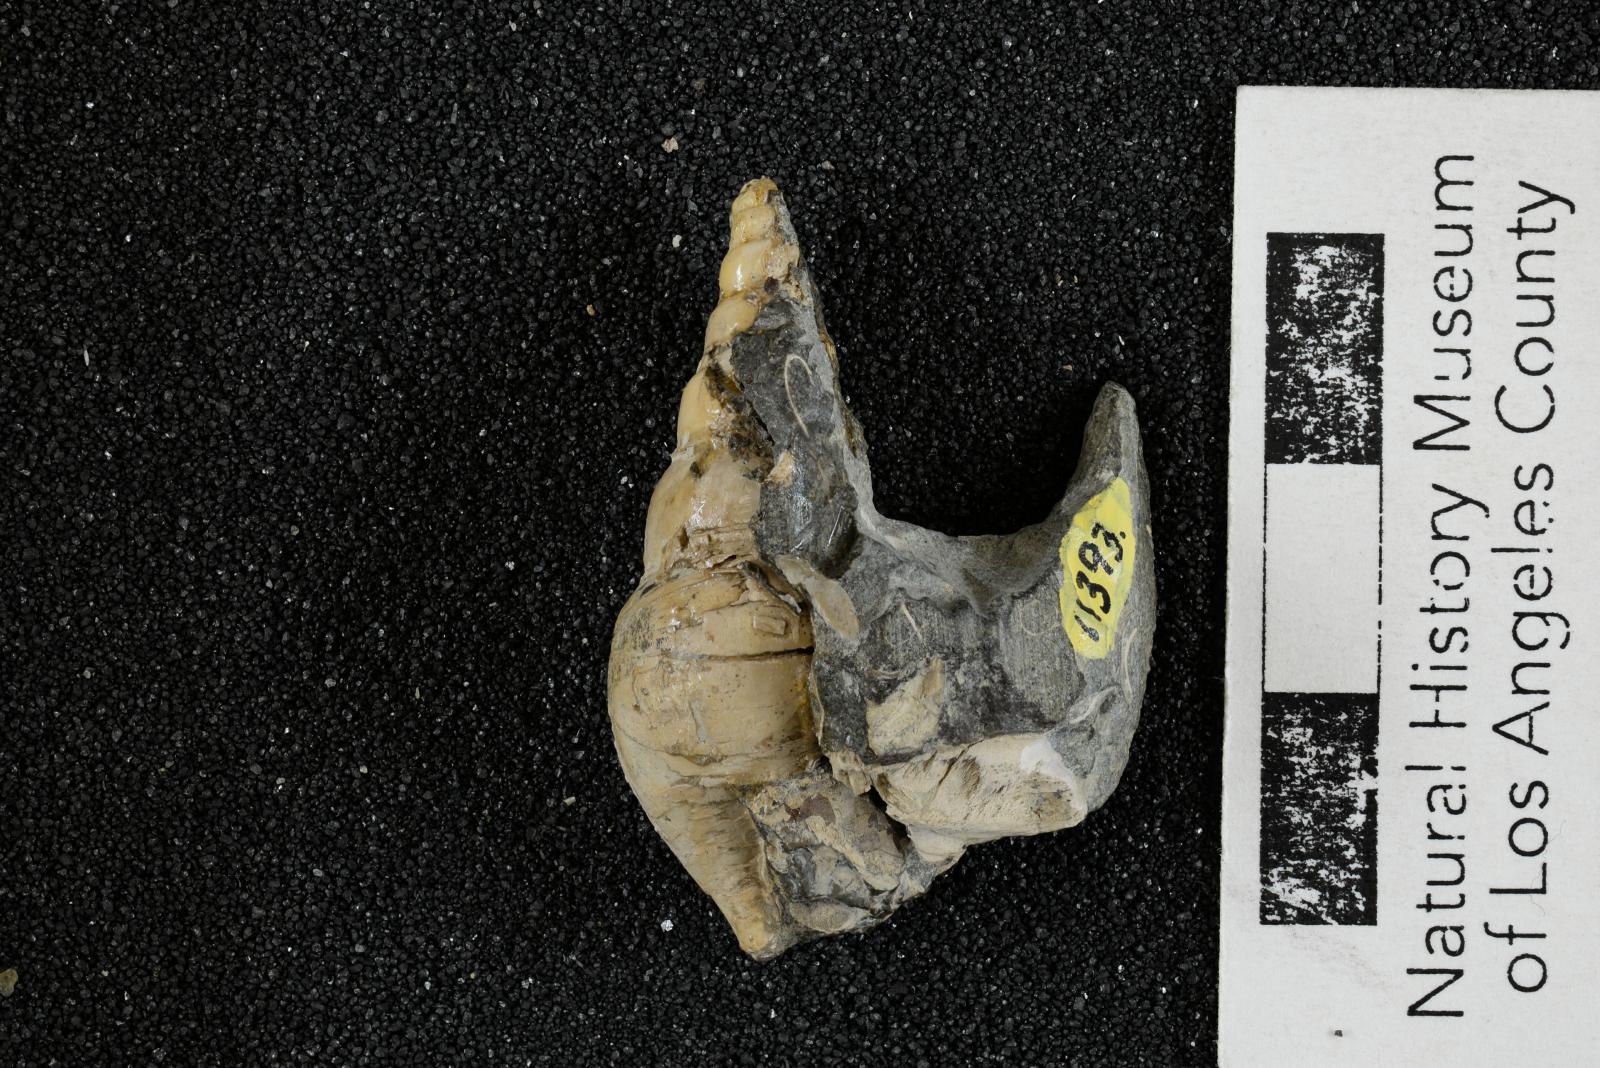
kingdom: Animalia
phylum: Mollusca
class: Gastropoda
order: Littorinimorpha
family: Aporrhaidae
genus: Latiala
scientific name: Latiala sigma
